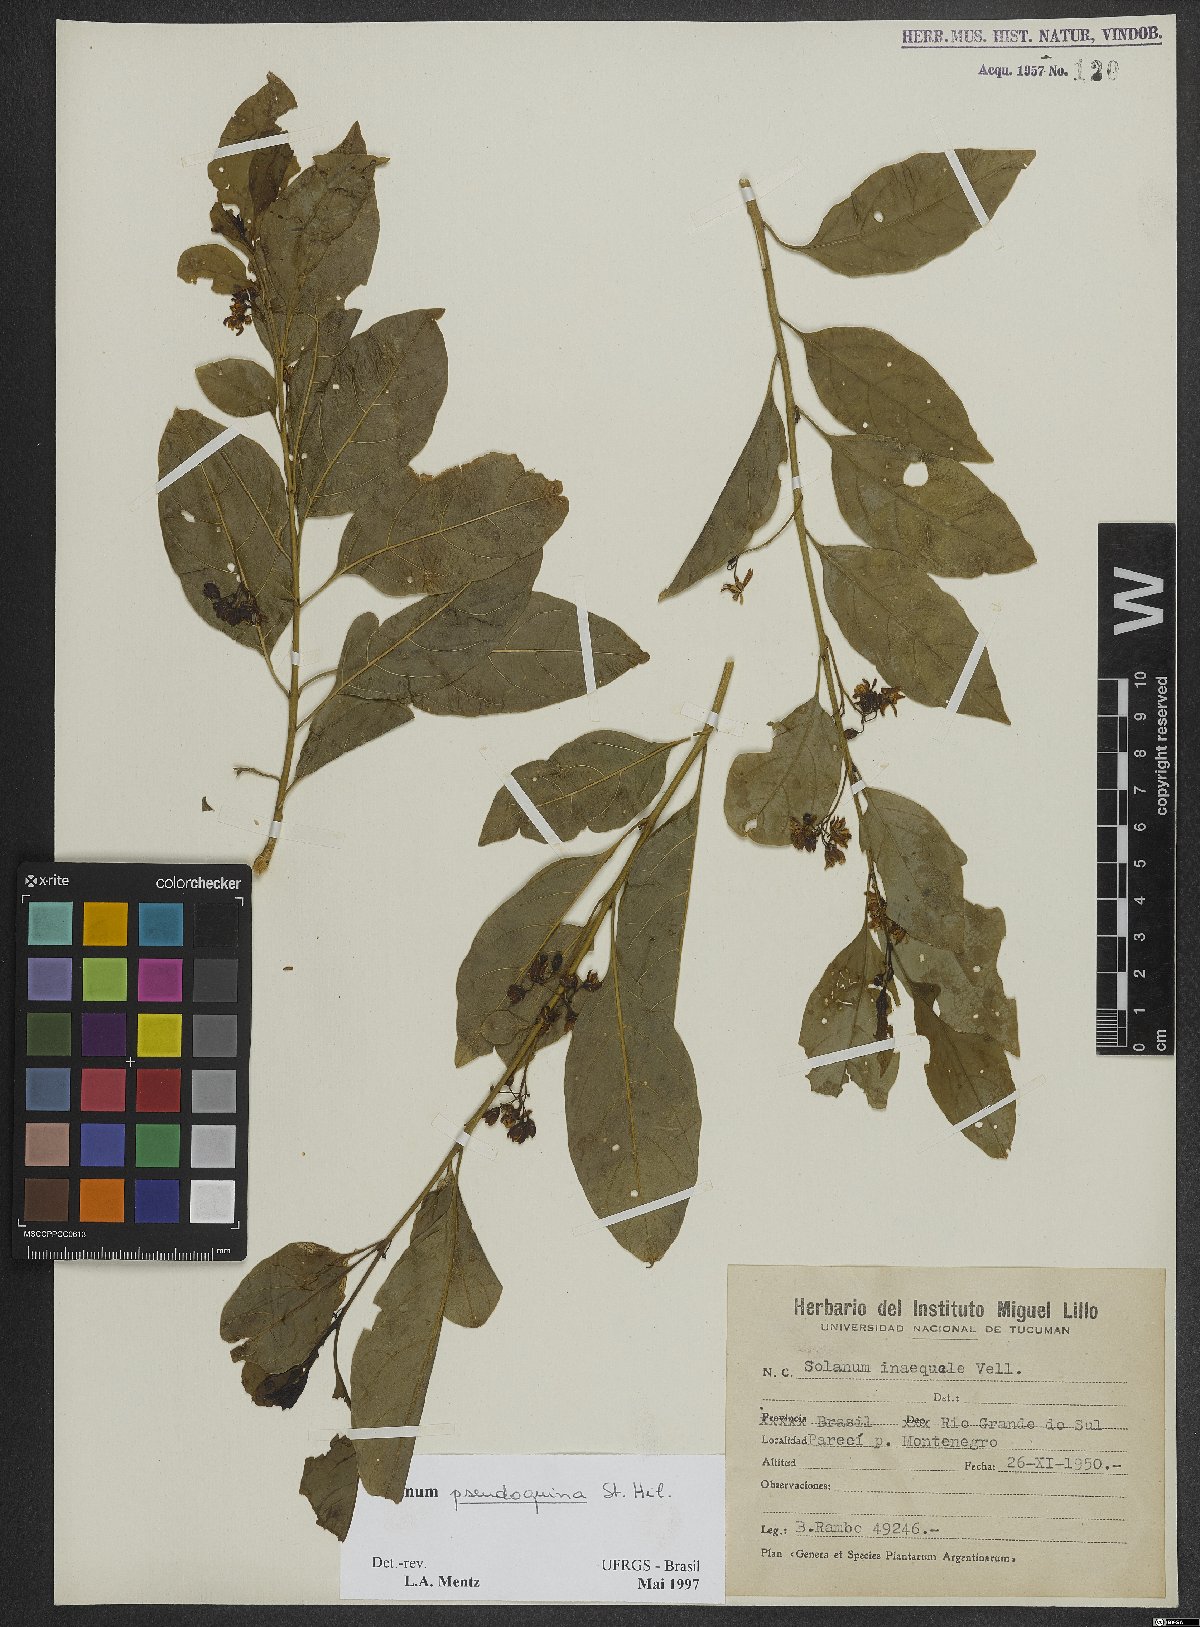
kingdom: Plantae
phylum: Tracheophyta
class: Magnoliopsida
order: Solanales
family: Solanaceae
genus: Solanum
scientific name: Solanum pseudoquina
